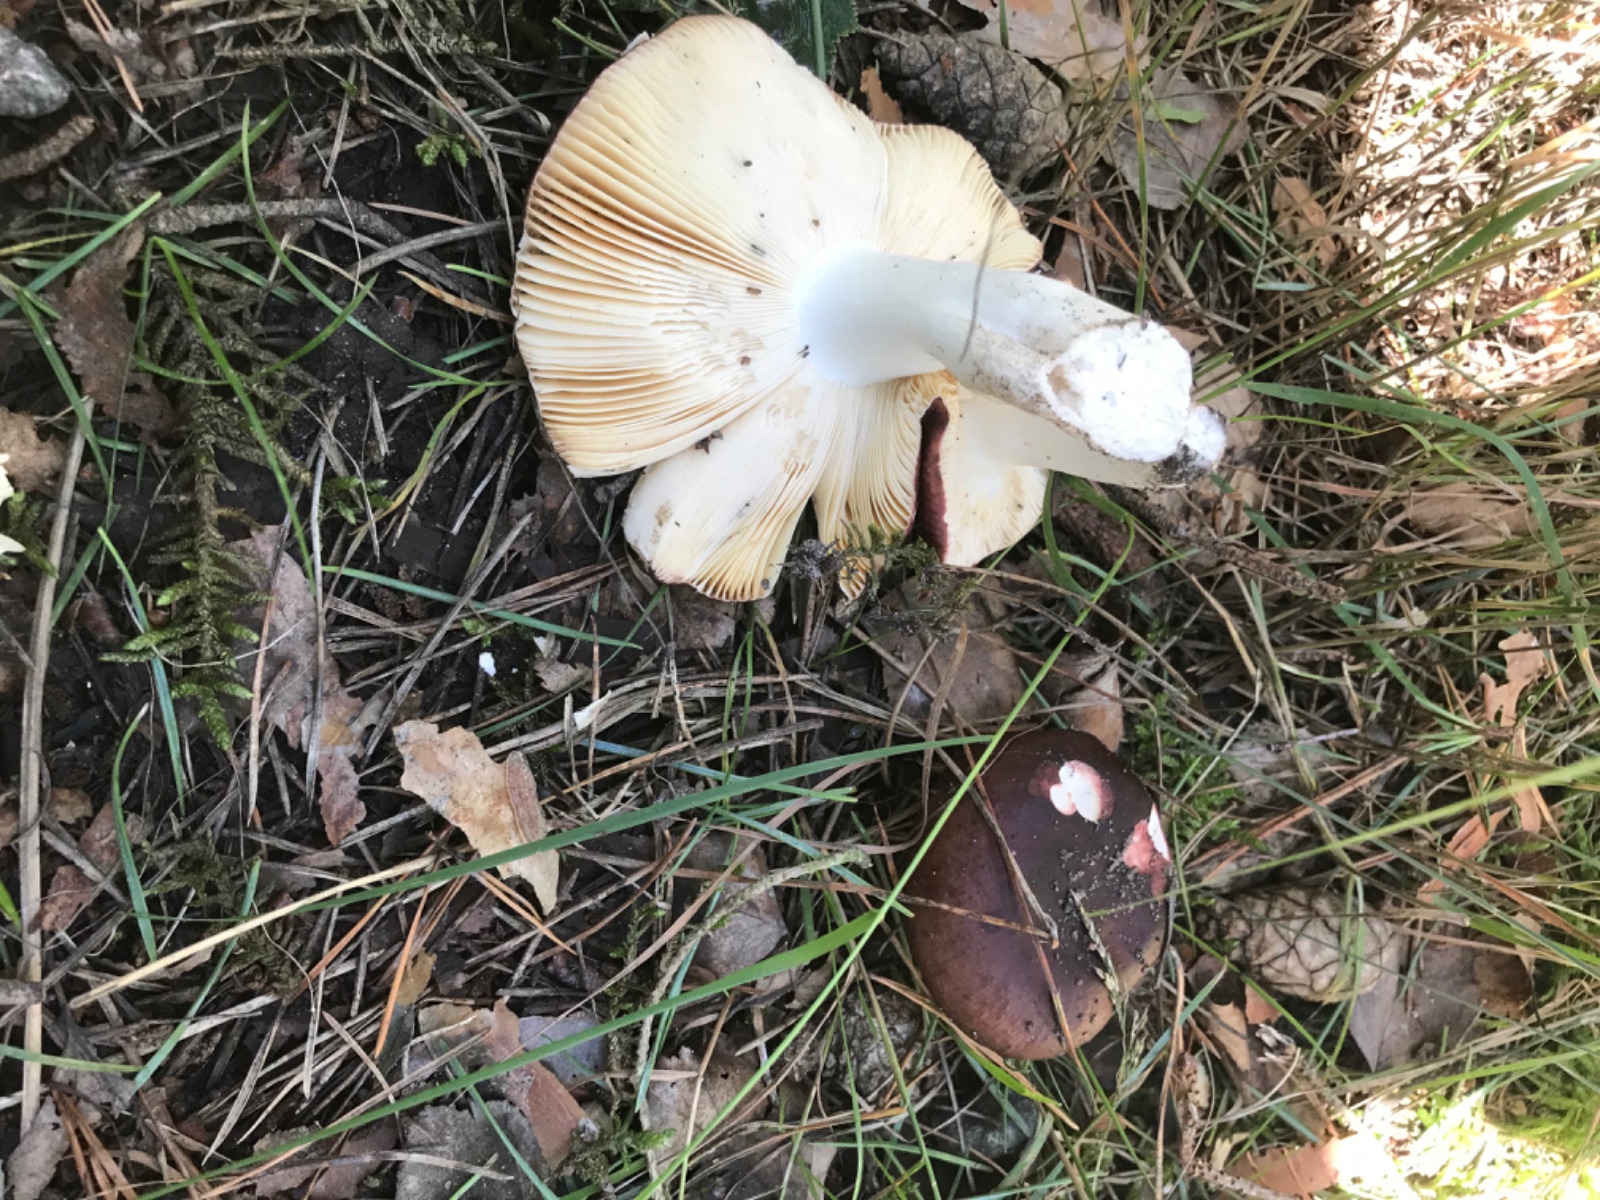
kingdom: Fungi
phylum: Basidiomycota
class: Agaricomycetes
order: Russulales
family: Russulaceae
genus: Russula
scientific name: Russula cessans
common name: fyrre-skørhat
